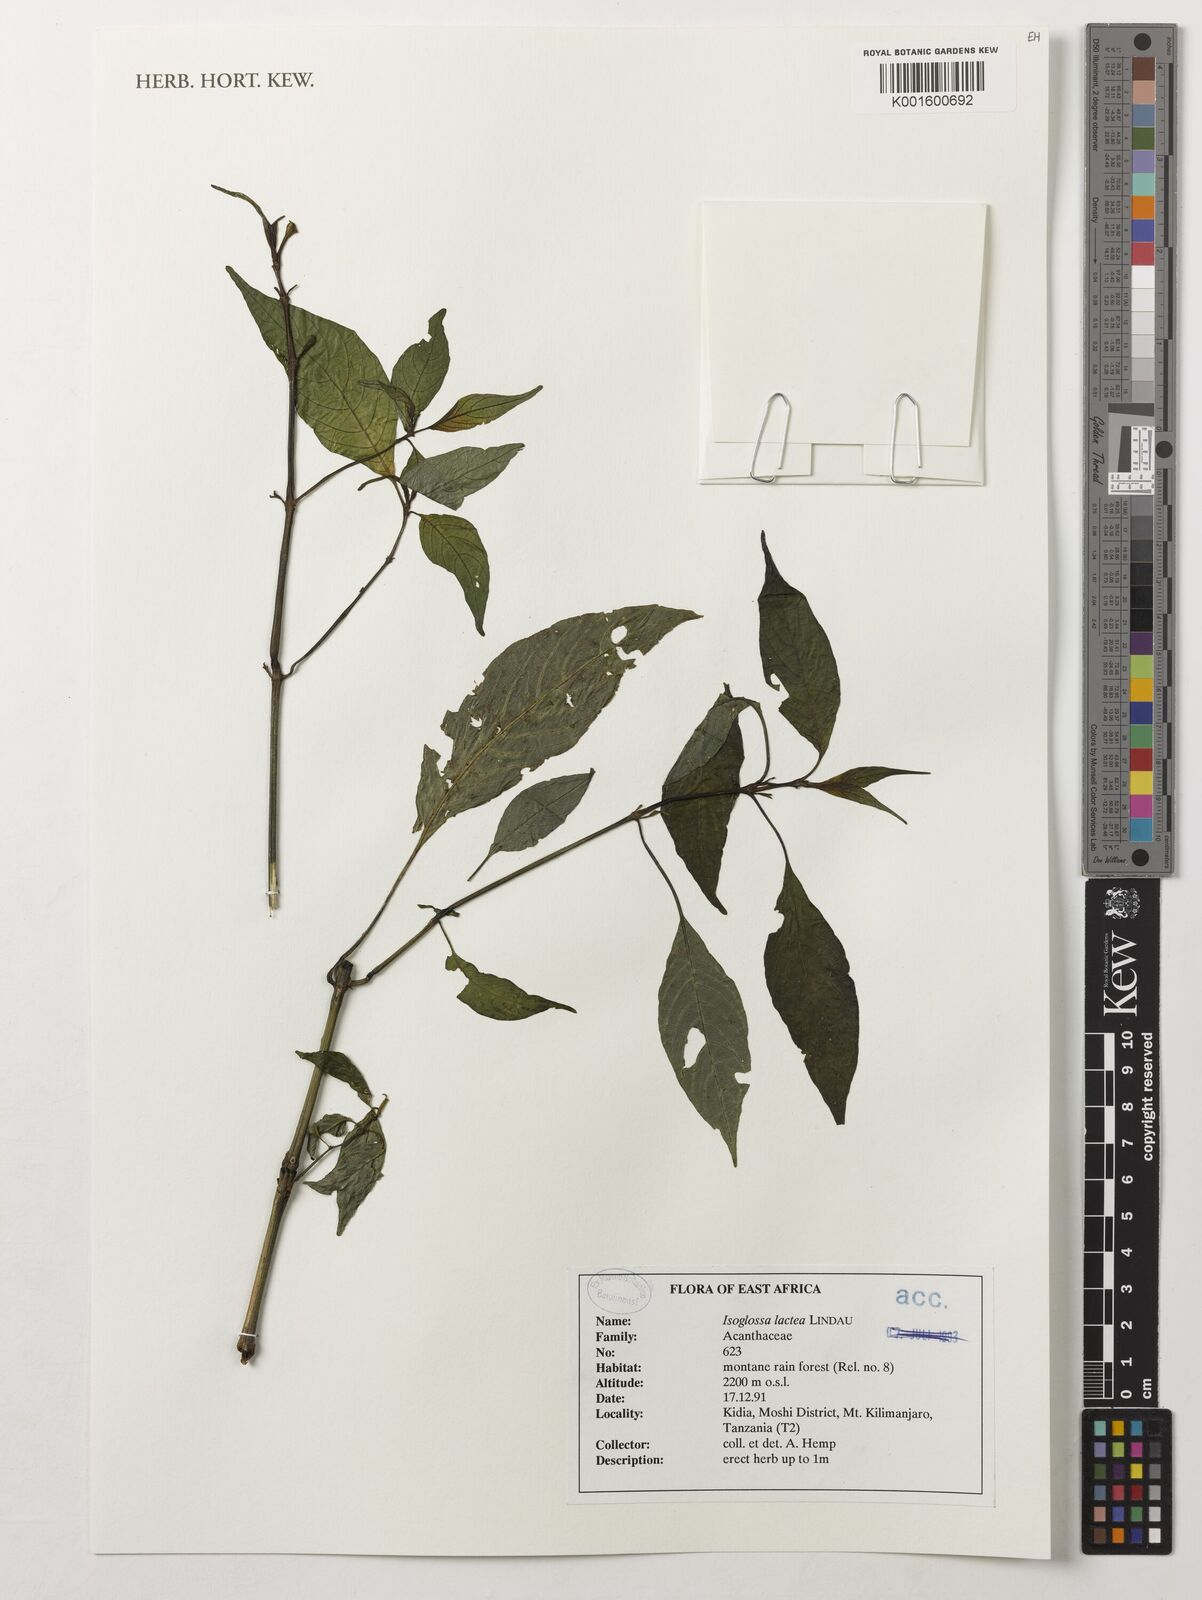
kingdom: Plantae
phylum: Tracheophyta
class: Magnoliopsida
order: Lamiales
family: Acanthaceae
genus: Isoglossa
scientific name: Isoglossa lactea
